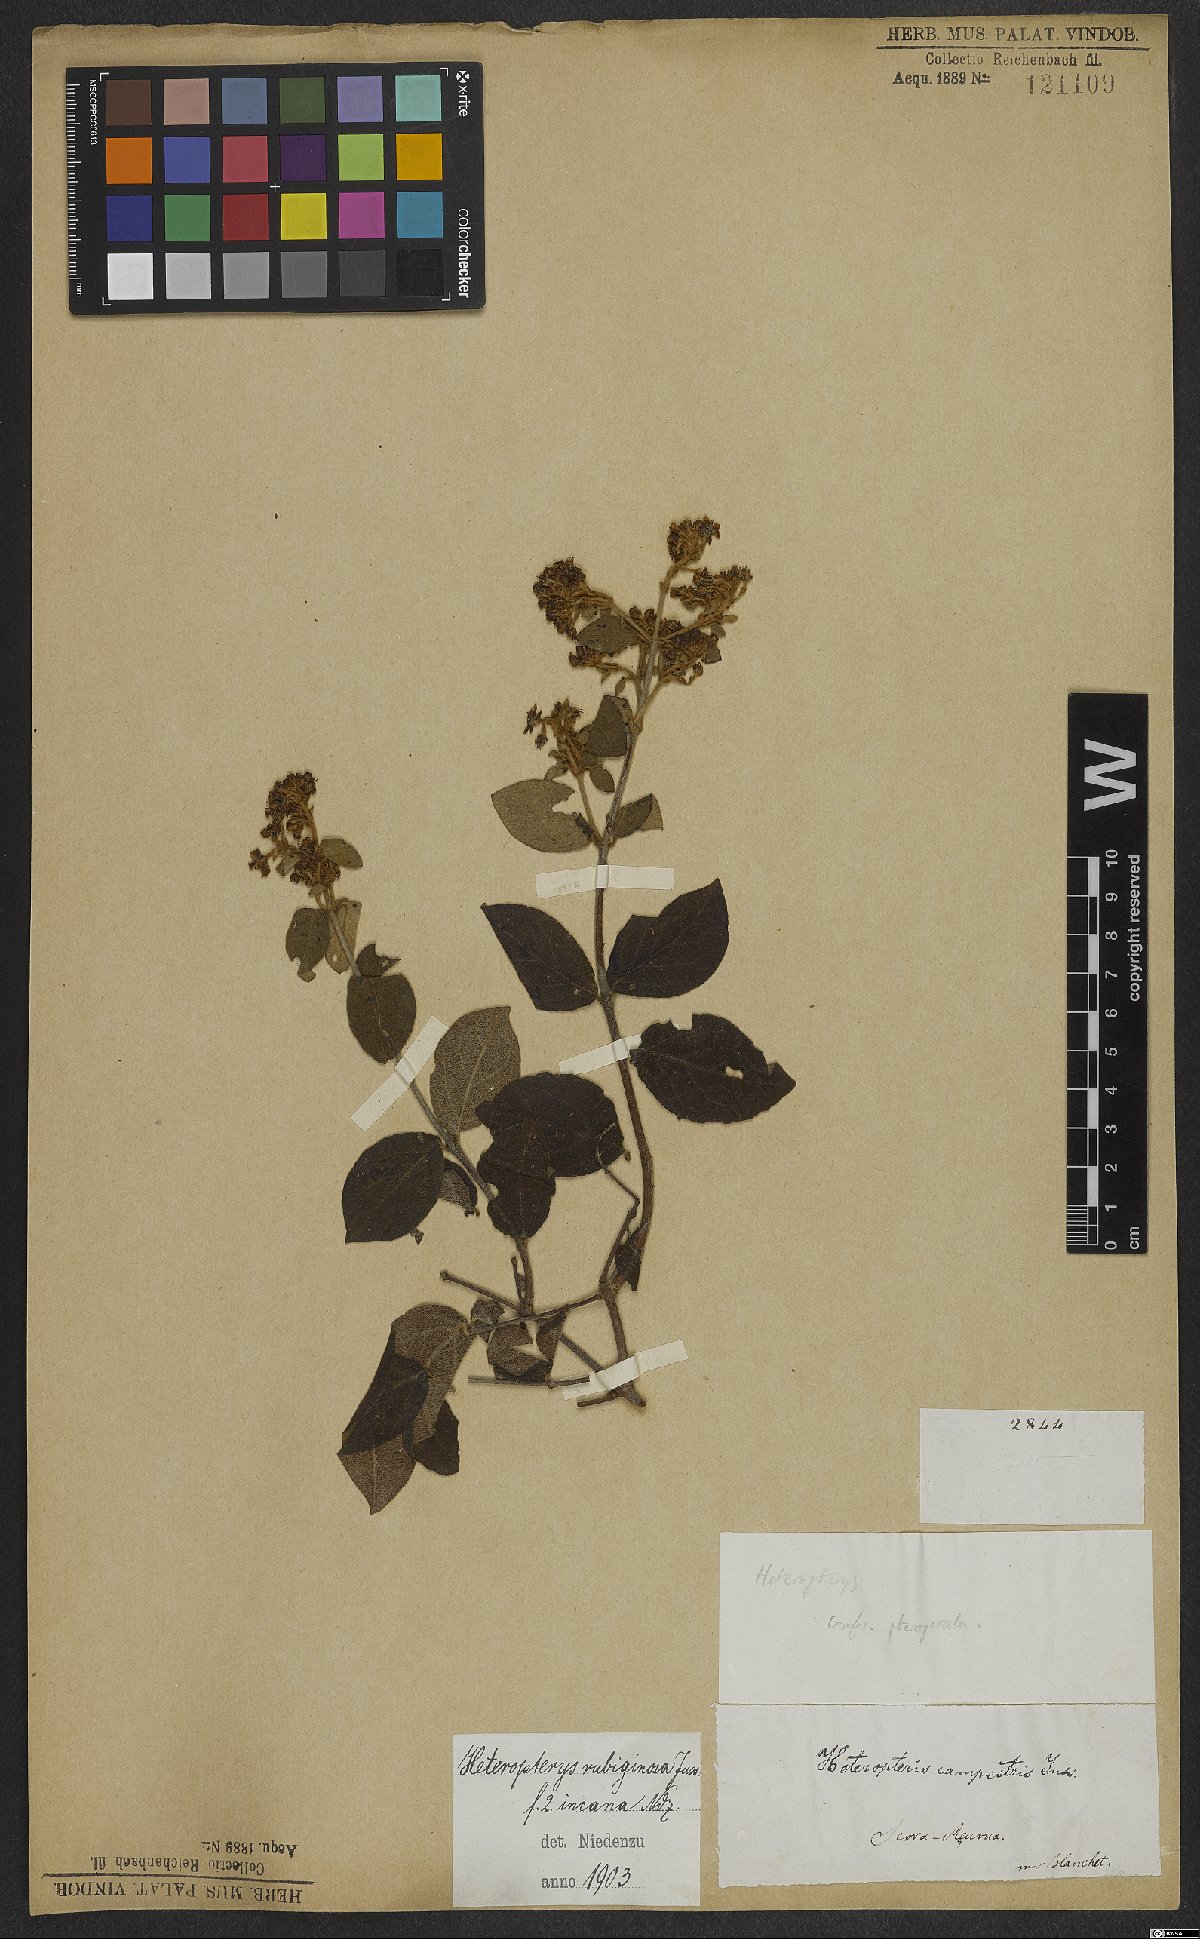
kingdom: Plantae
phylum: Tracheophyta
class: Magnoliopsida
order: Malpighiales
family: Malpighiaceae
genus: Heteropterys
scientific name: Heteropterys rubiginosa
